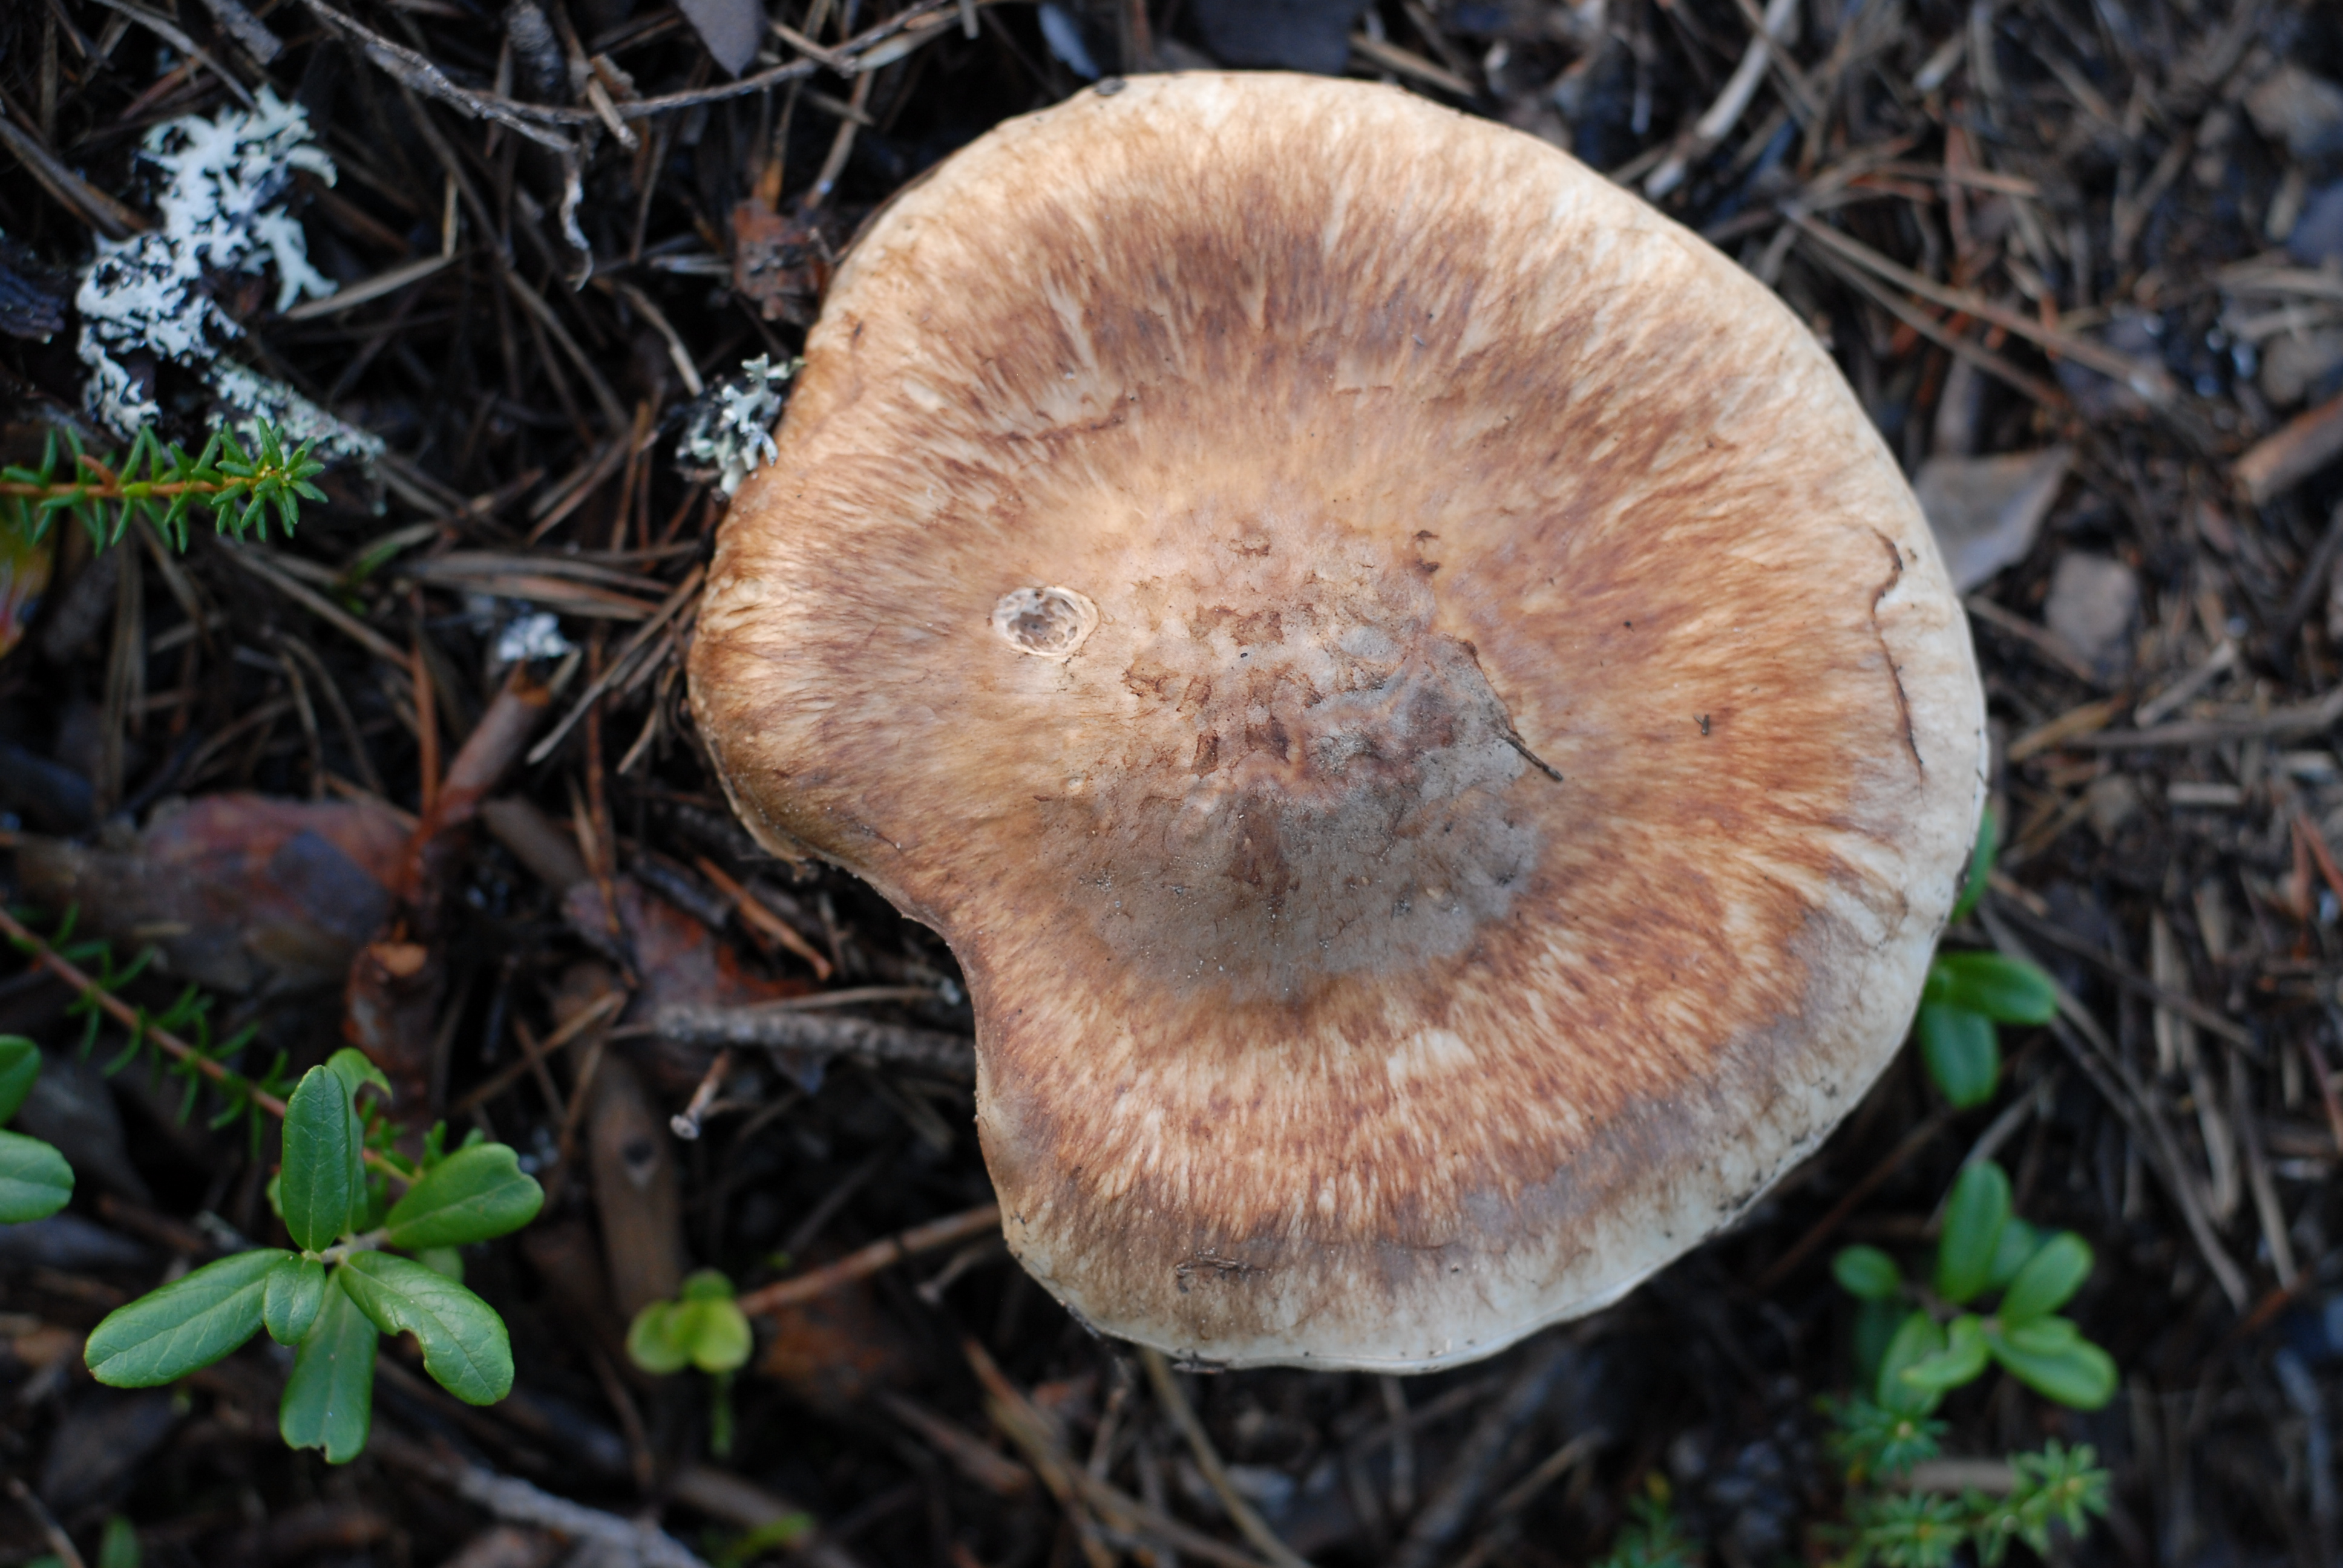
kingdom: Fungi
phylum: Basidiomycota
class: Agaricomycetes
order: Agaricales
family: Tricholomataceae
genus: Tricholoma
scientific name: Tricholoma matsutake
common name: Matsutake
